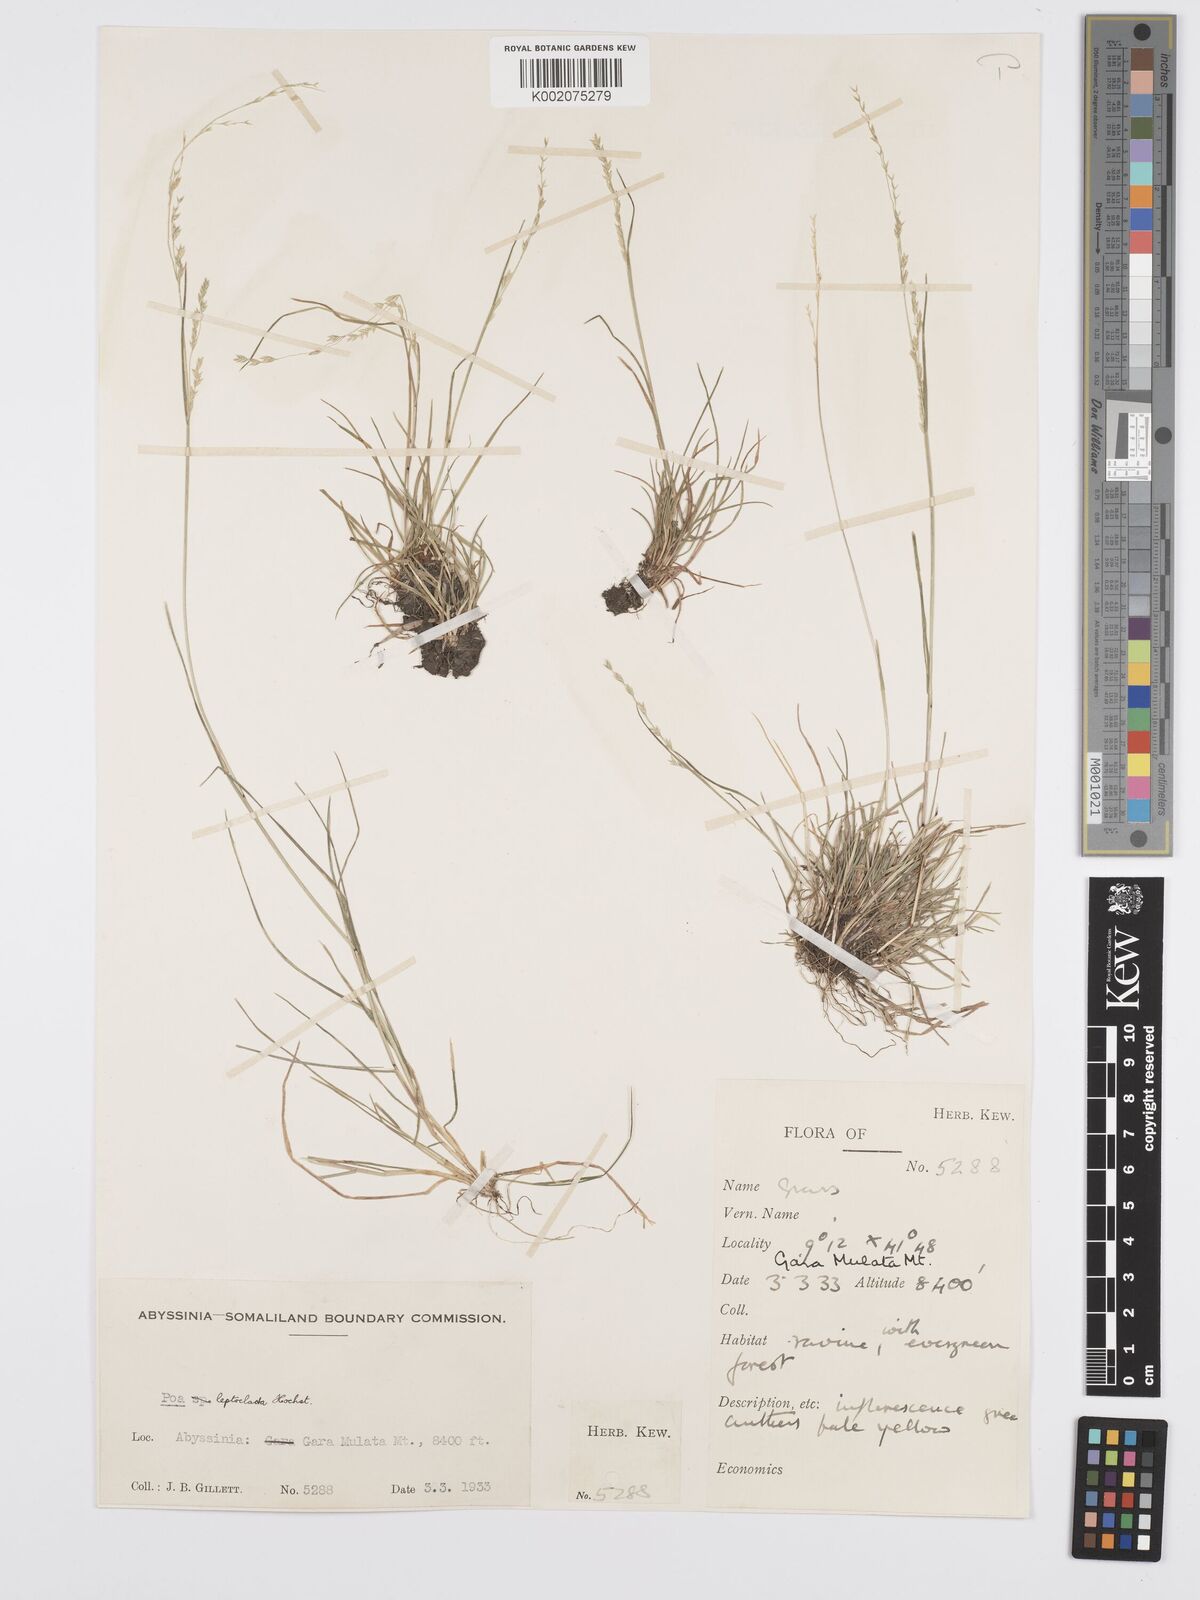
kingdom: Plantae
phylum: Tracheophyta
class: Liliopsida
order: Poales
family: Poaceae
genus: Poa
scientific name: Poa leptoclada
